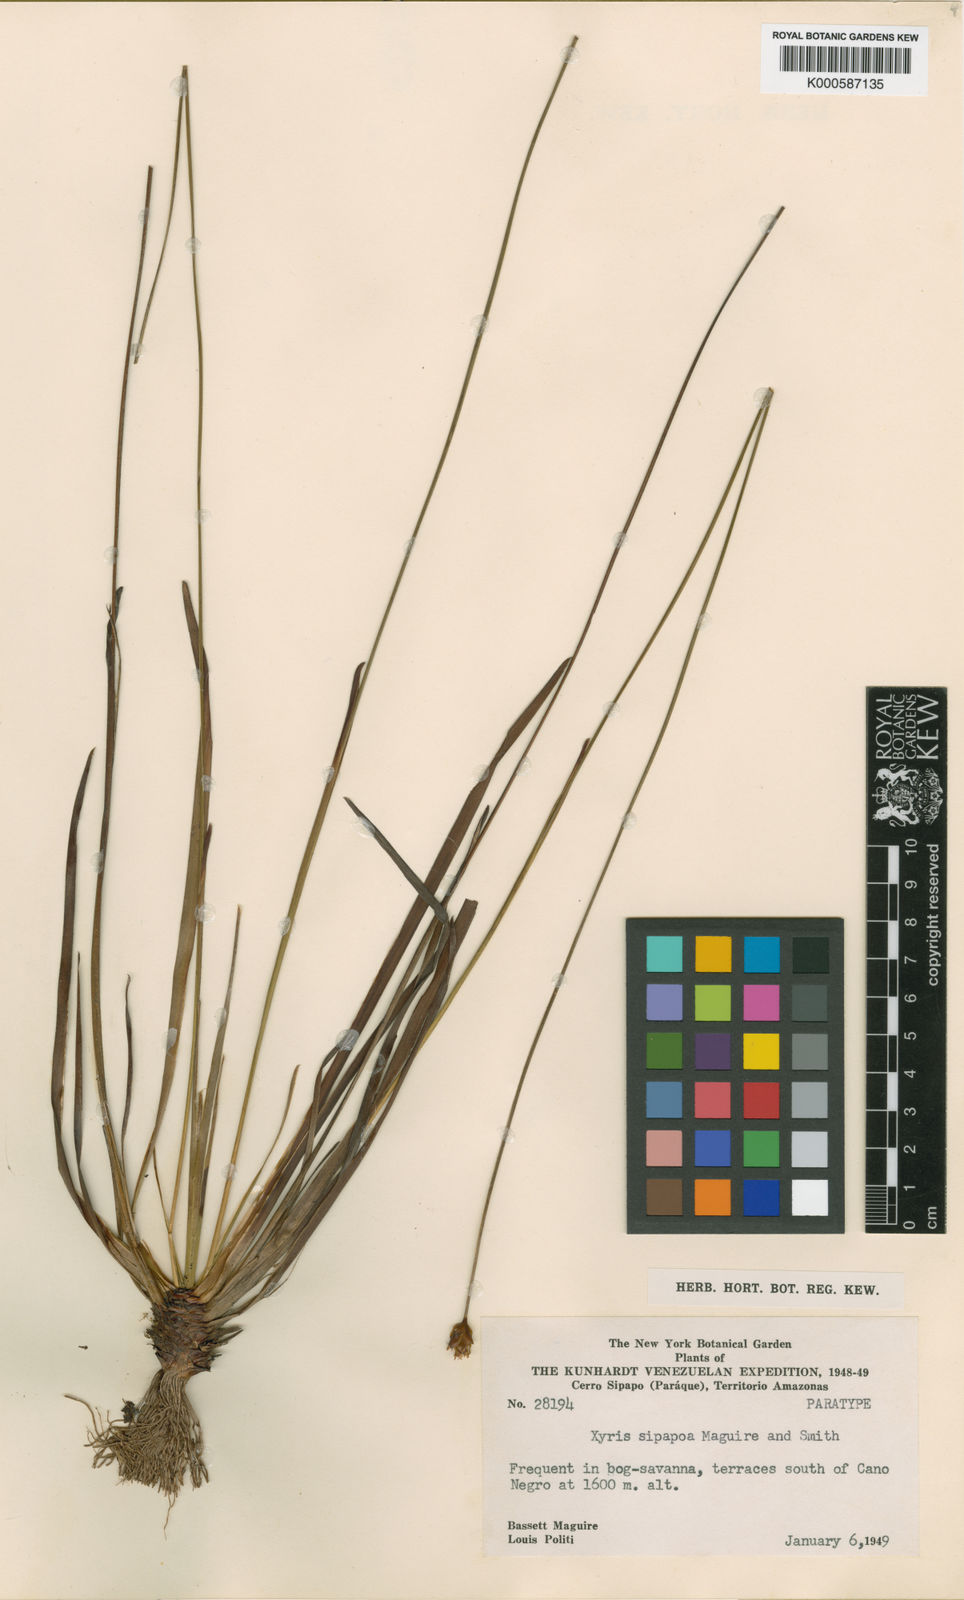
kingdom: Plantae
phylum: Tracheophyta
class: Liliopsida
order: Poales
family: Xyridaceae
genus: Xyris
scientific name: Xyris thysanolepis
